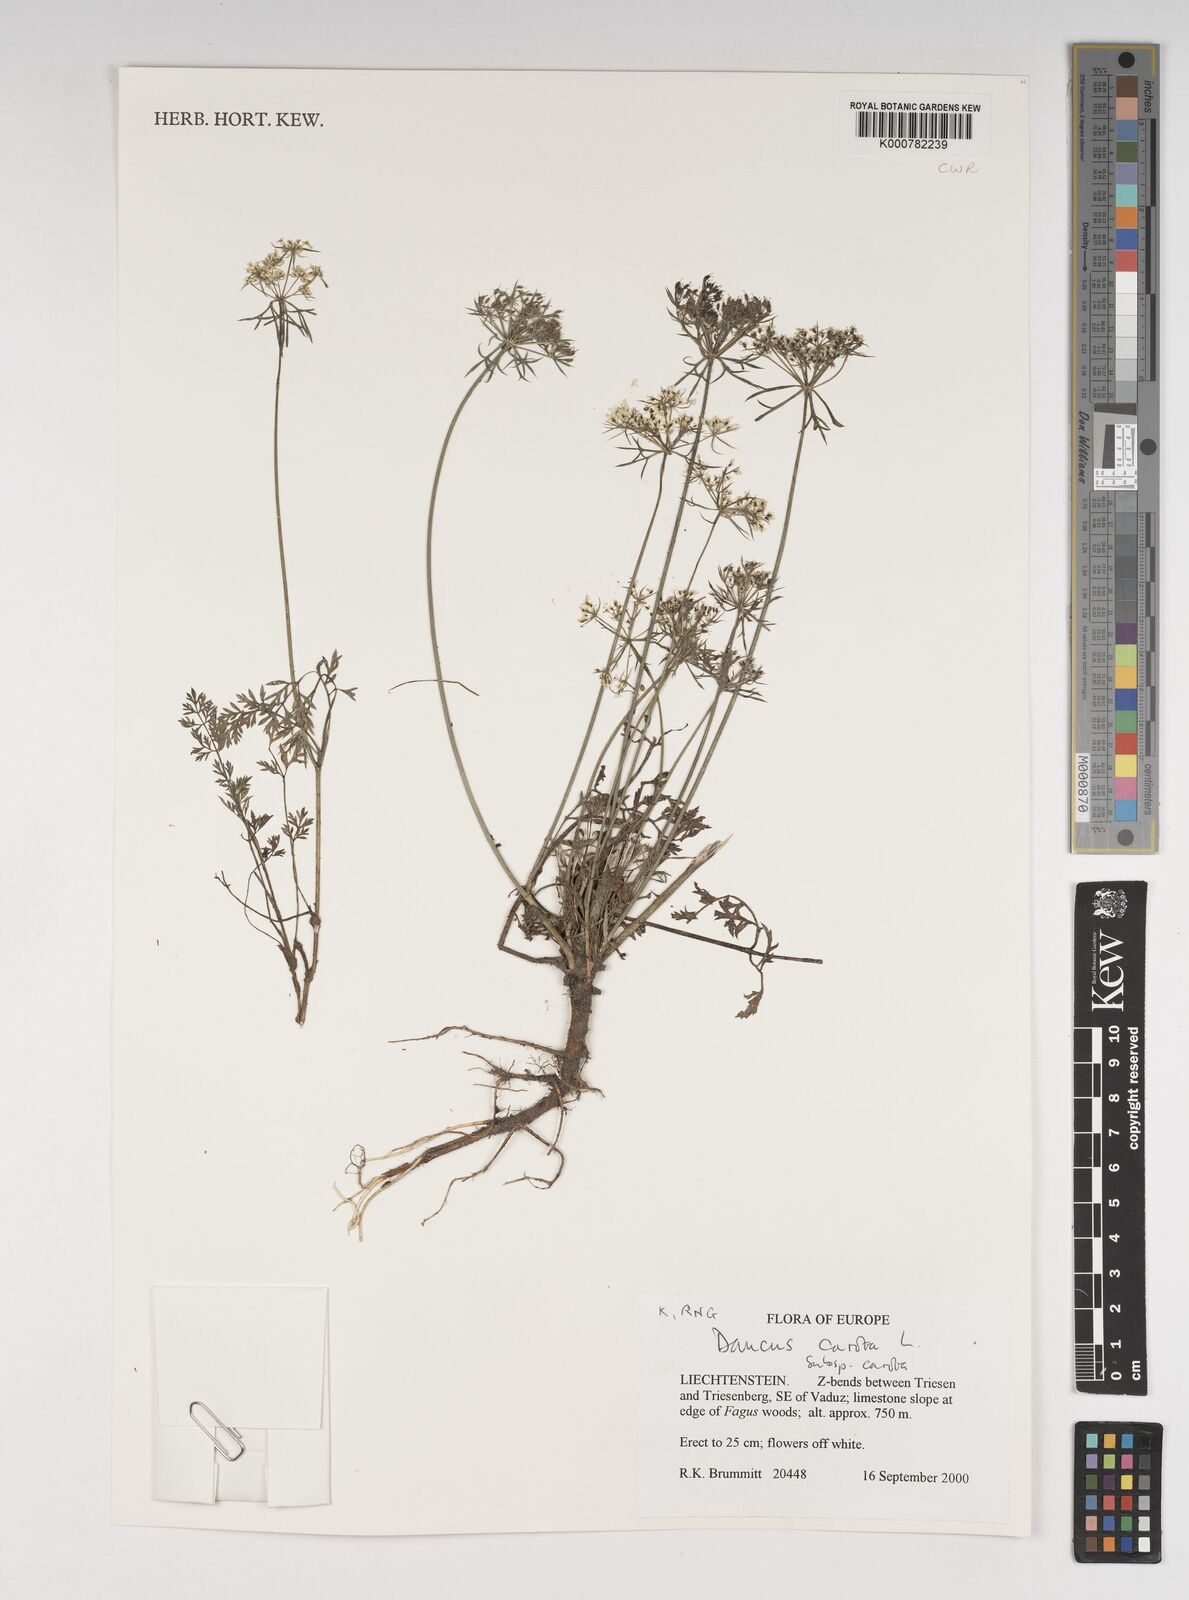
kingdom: Plantae
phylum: Tracheophyta
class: Magnoliopsida
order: Apiales
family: Apiaceae
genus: Daucus
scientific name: Daucus carota
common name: Wild carrot
